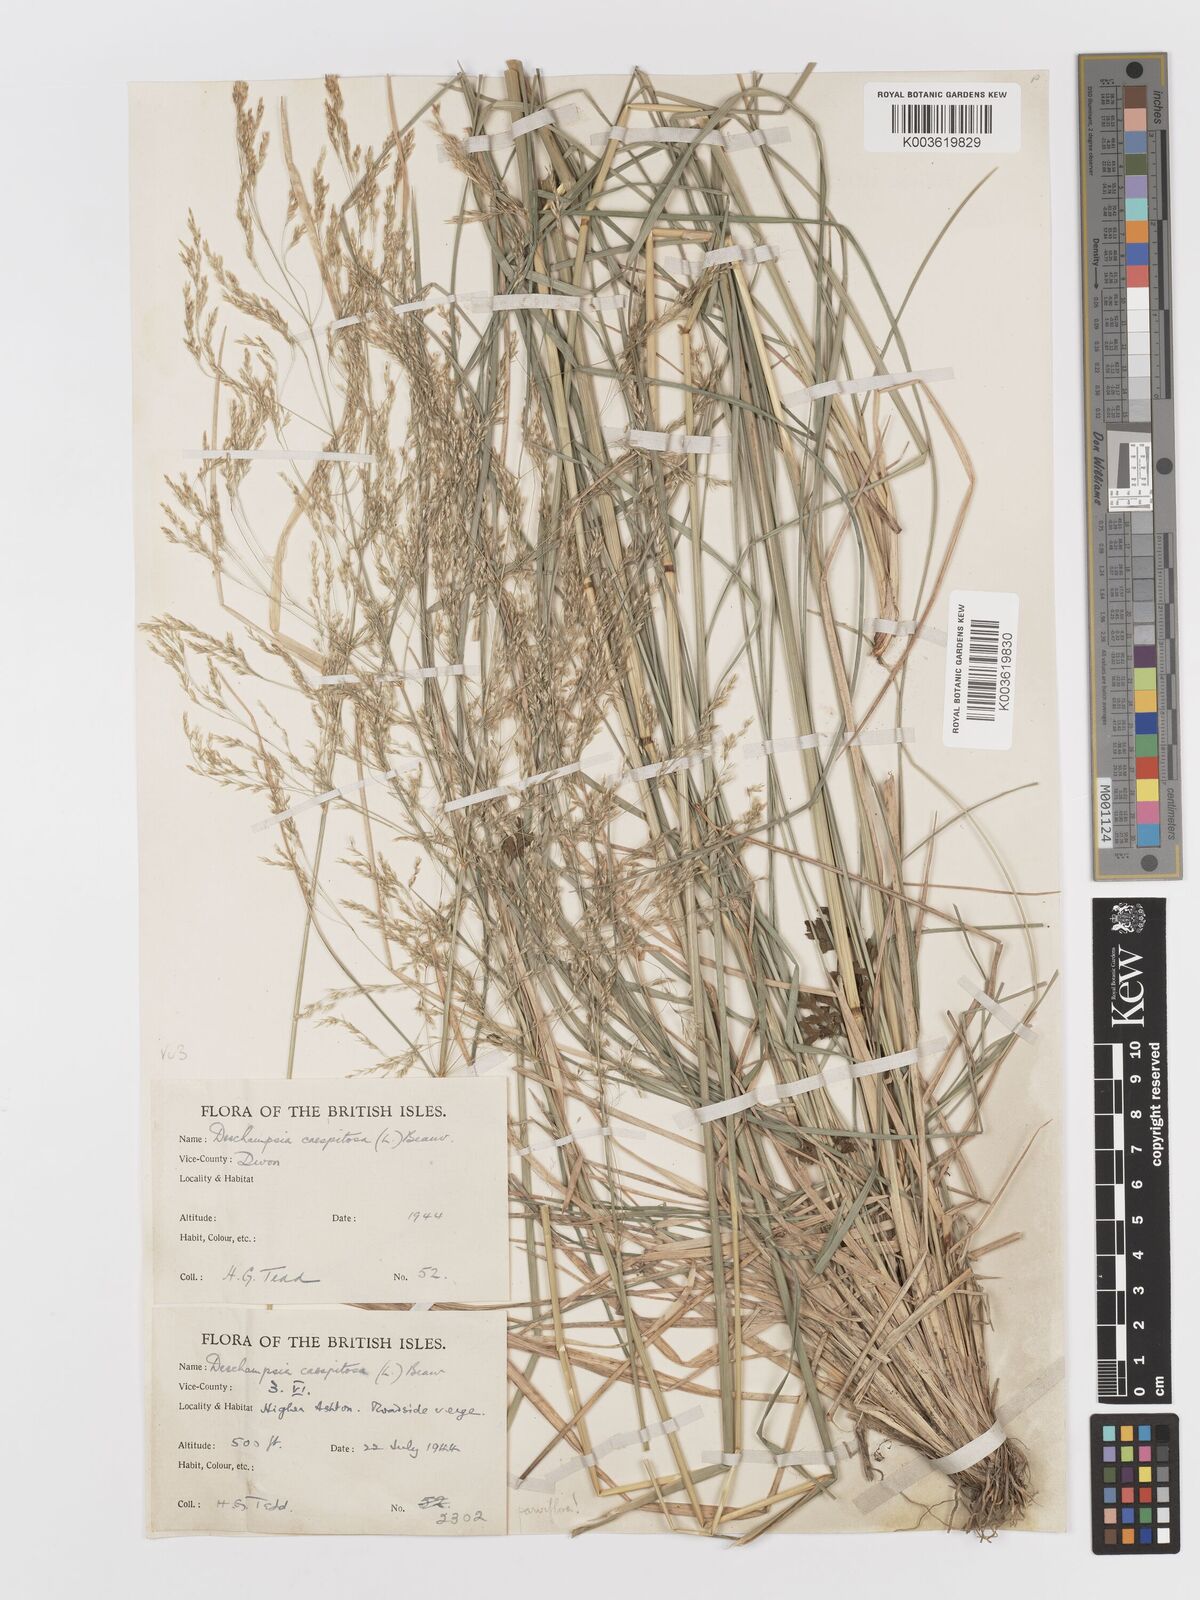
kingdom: Plantae
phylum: Tracheophyta
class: Liliopsida
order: Poales
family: Poaceae
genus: Deschampsia
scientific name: Deschampsia cespitosa
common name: Tufted hair-grass
